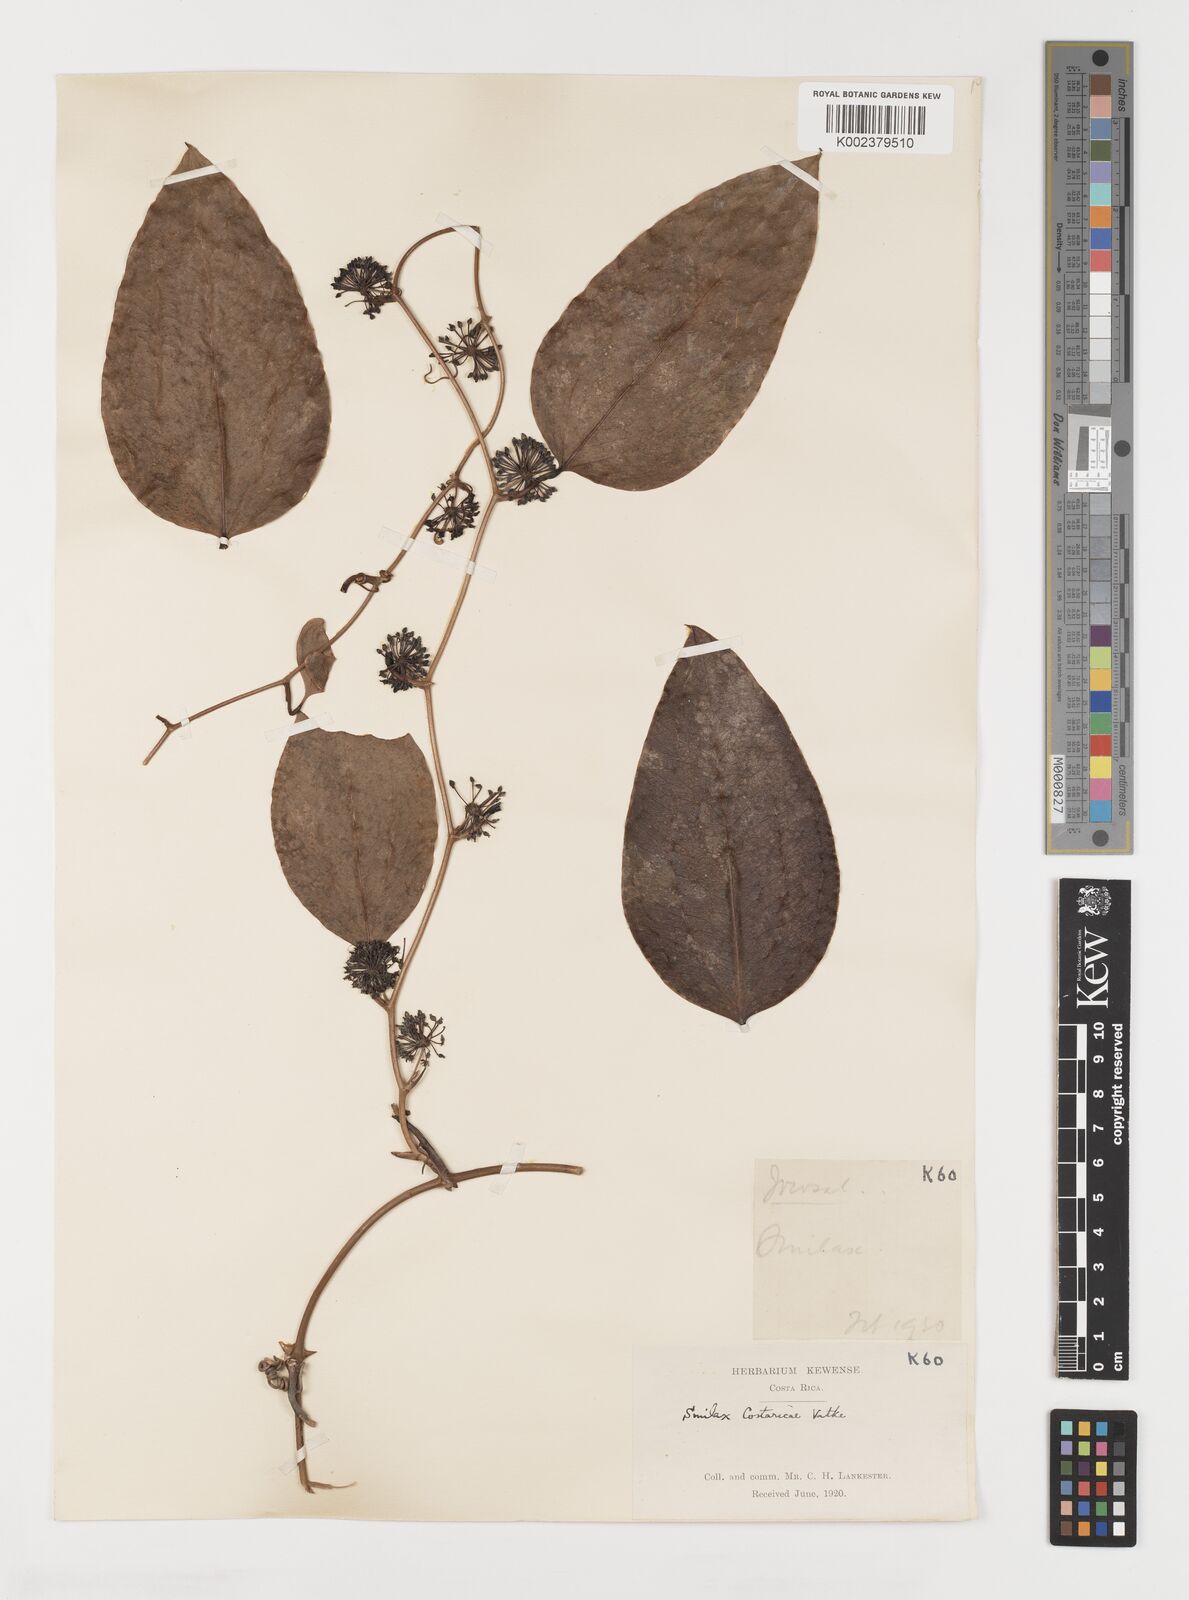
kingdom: Plantae
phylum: Tracheophyta
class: Liliopsida
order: Liliales
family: Smilacaceae
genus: Smilax
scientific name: Smilax spinosa
